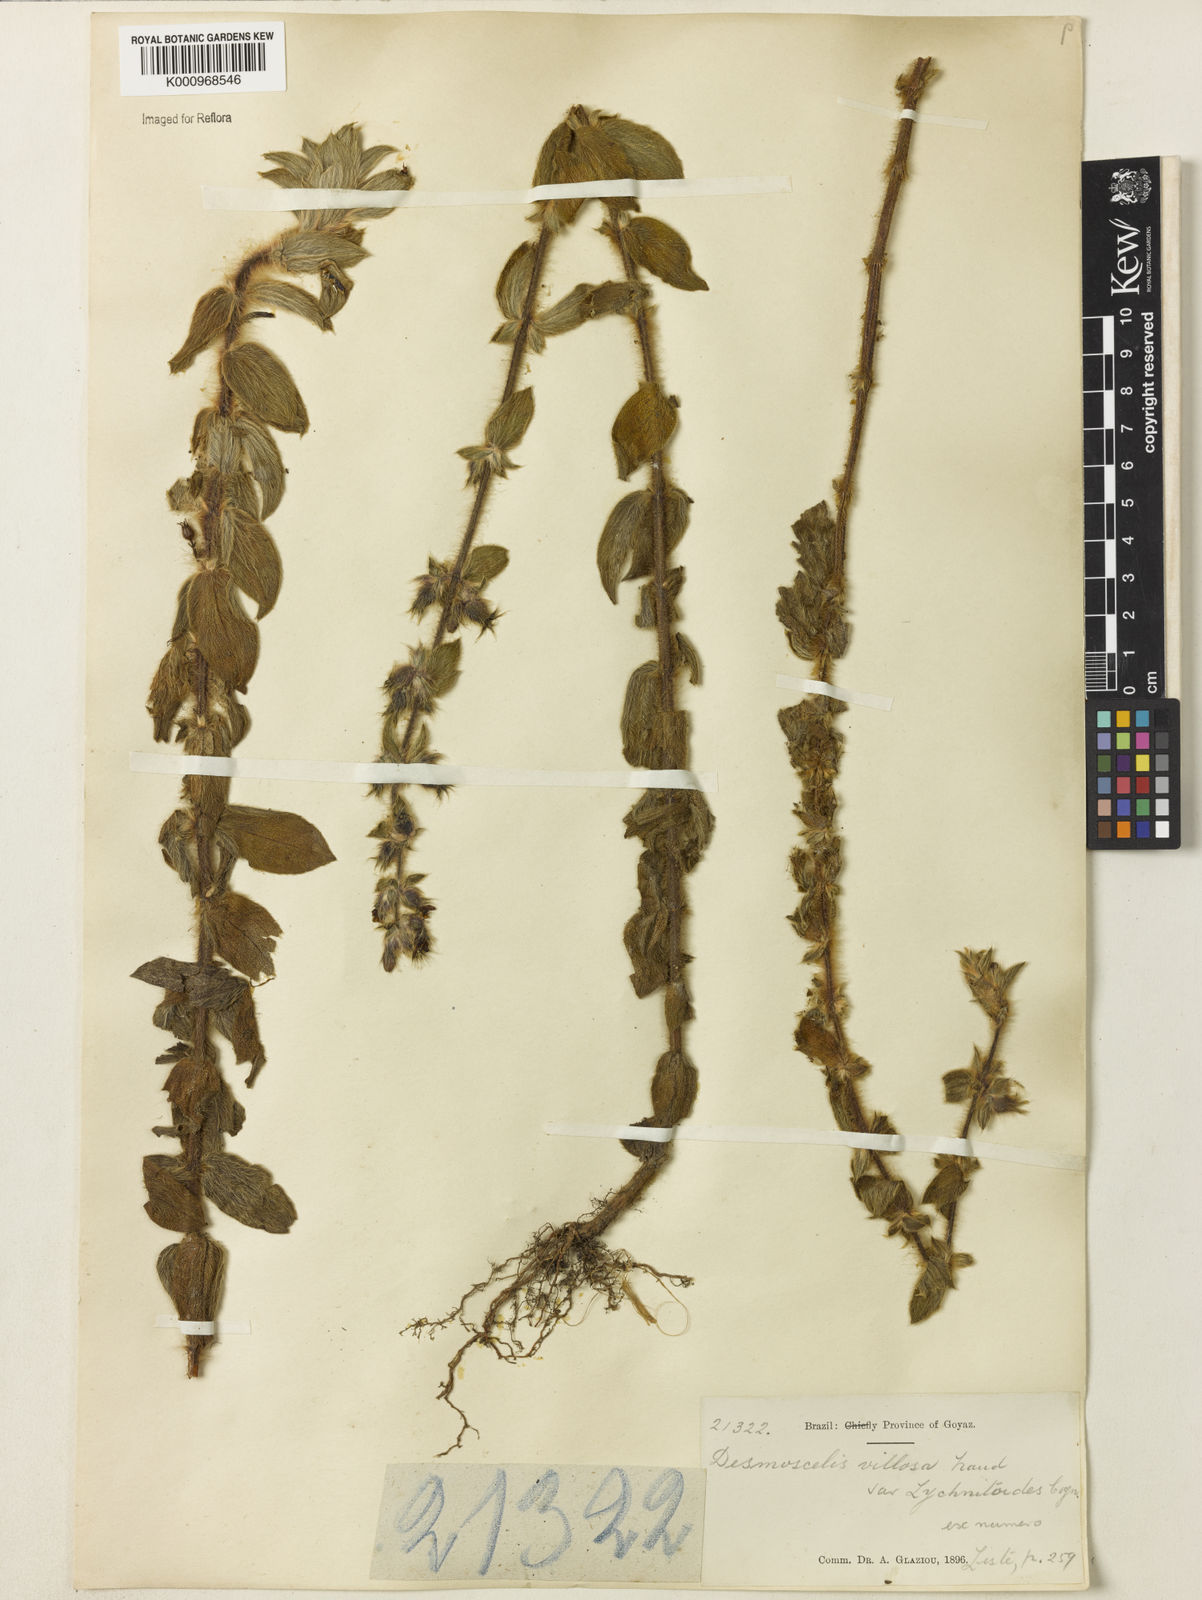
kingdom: Plantae
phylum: Tracheophyta
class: Magnoliopsida
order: Myrtales
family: Melastomataceae
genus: Desmoscelis
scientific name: Desmoscelis villosa
